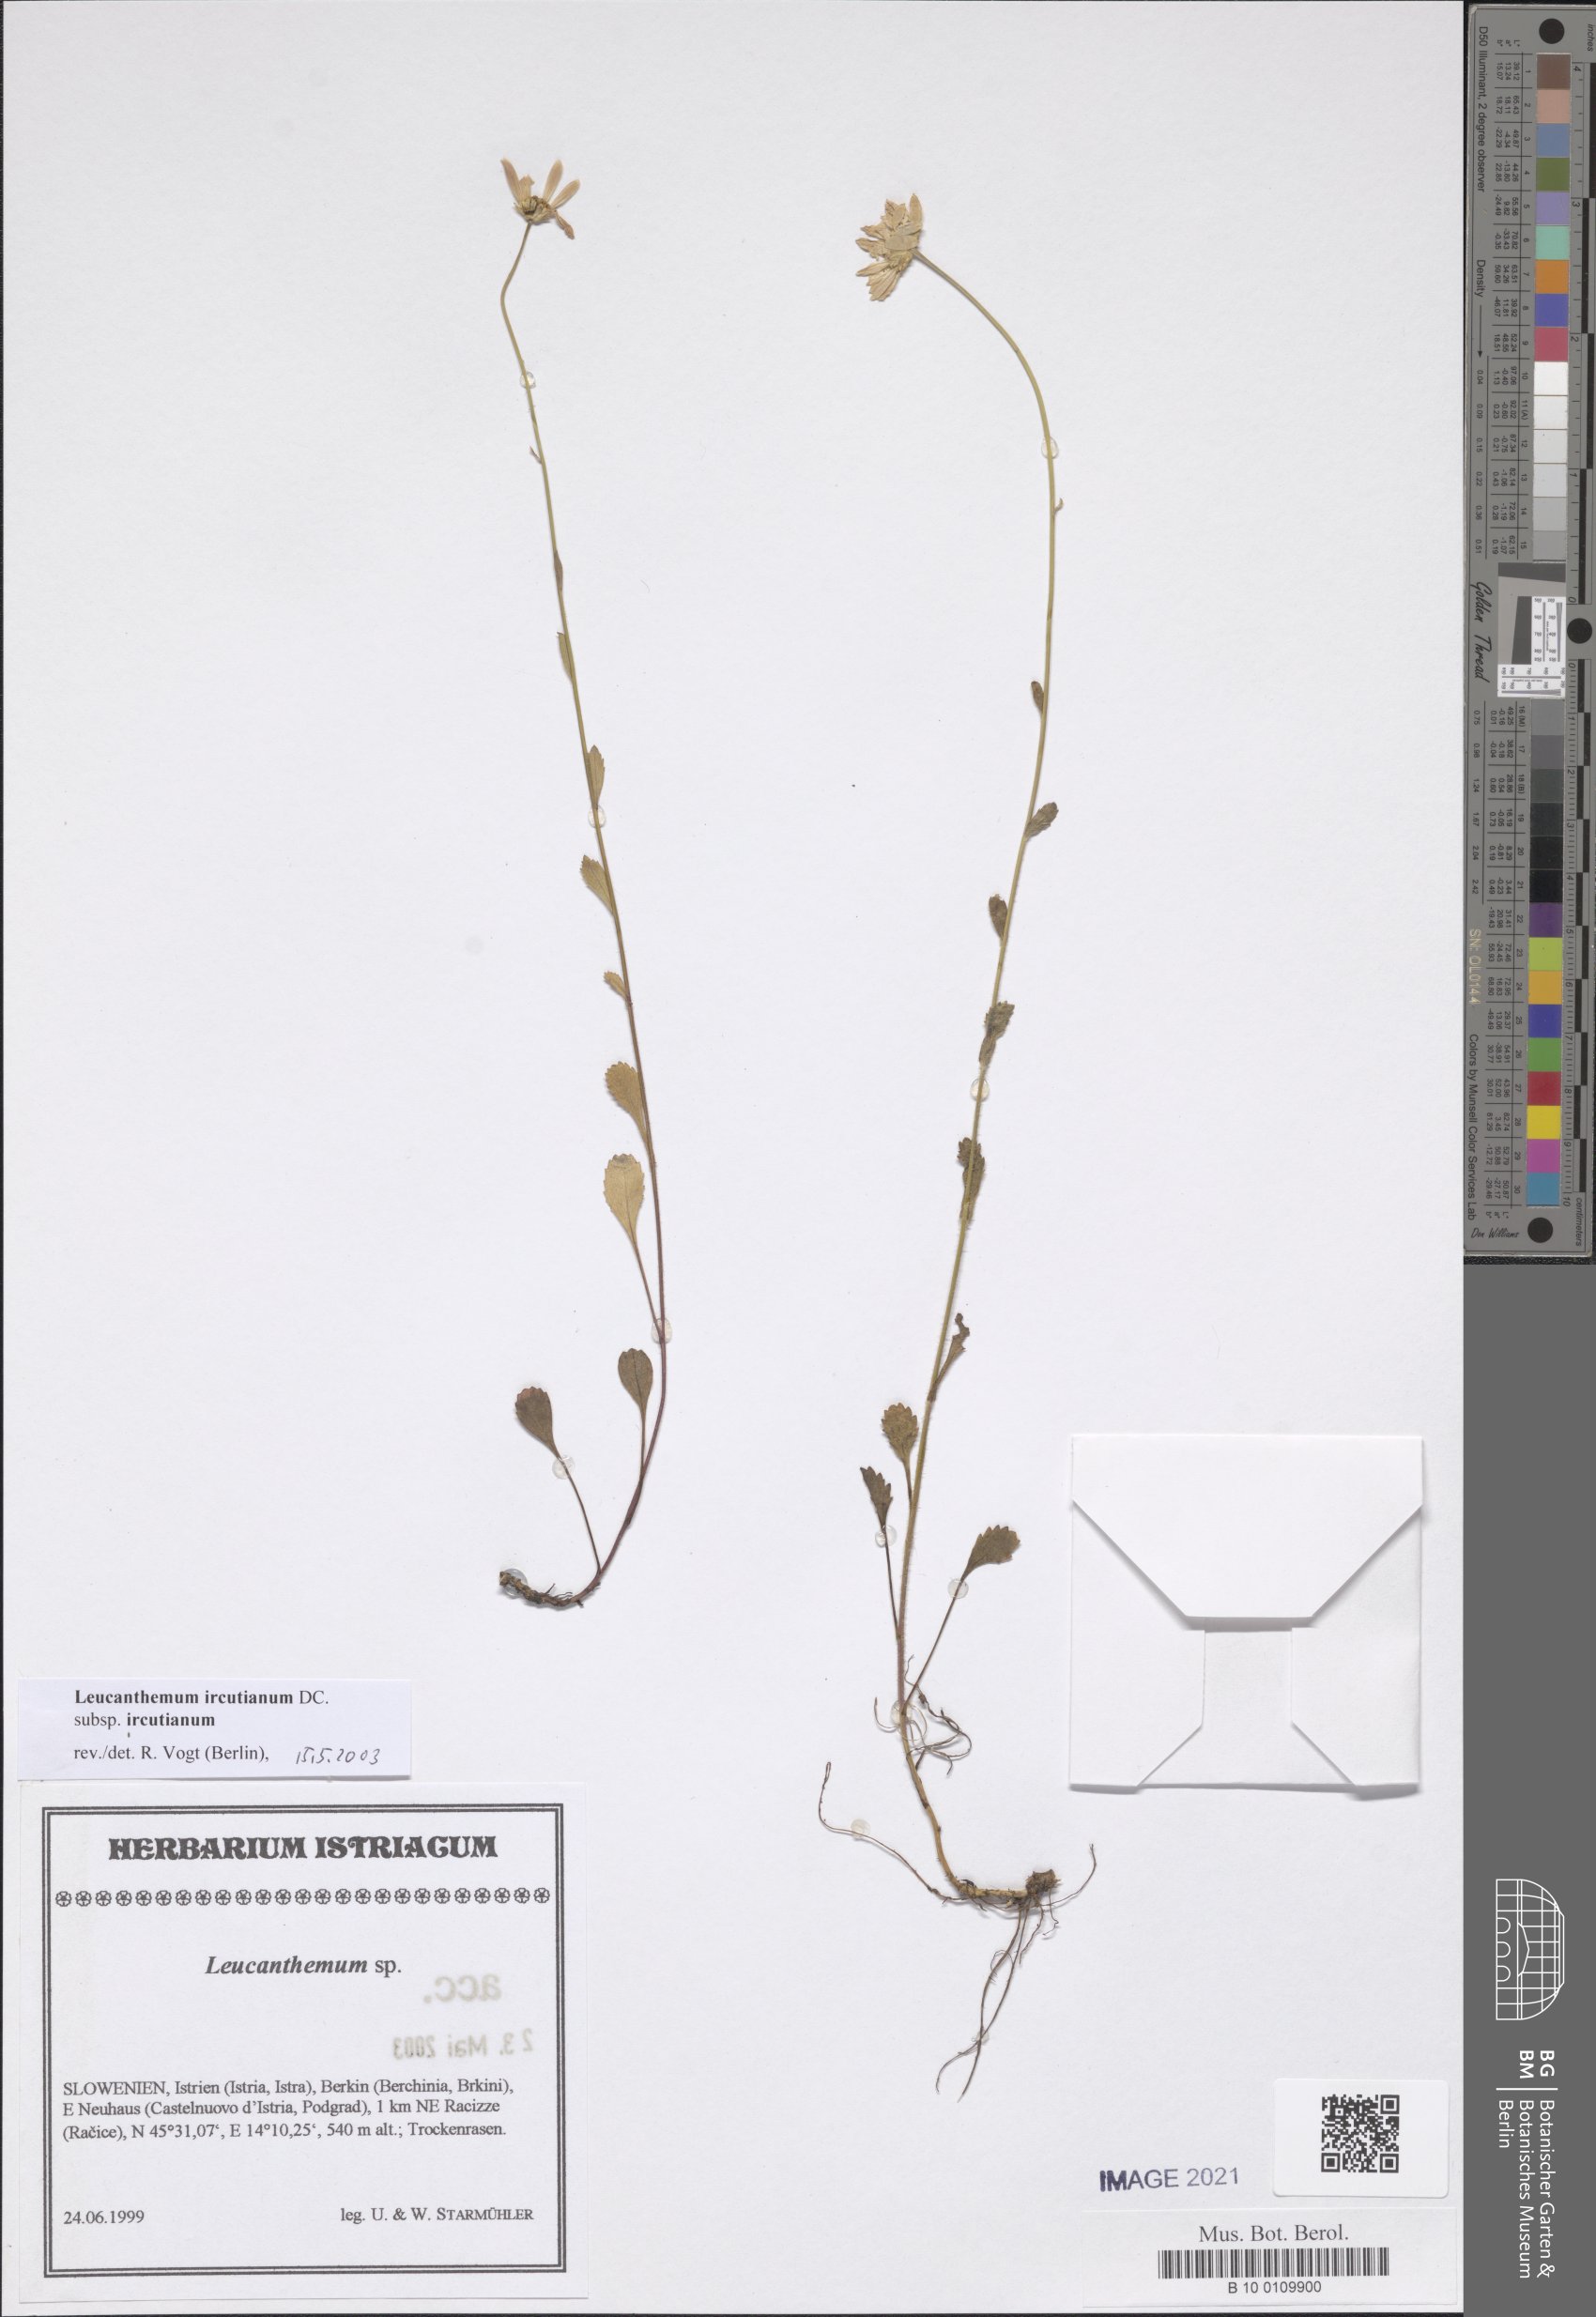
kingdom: Plantae
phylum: Tracheophyta
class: Magnoliopsida
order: Asterales
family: Asteraceae
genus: Leucanthemum
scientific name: Leucanthemum ircutianum
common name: Daisy
